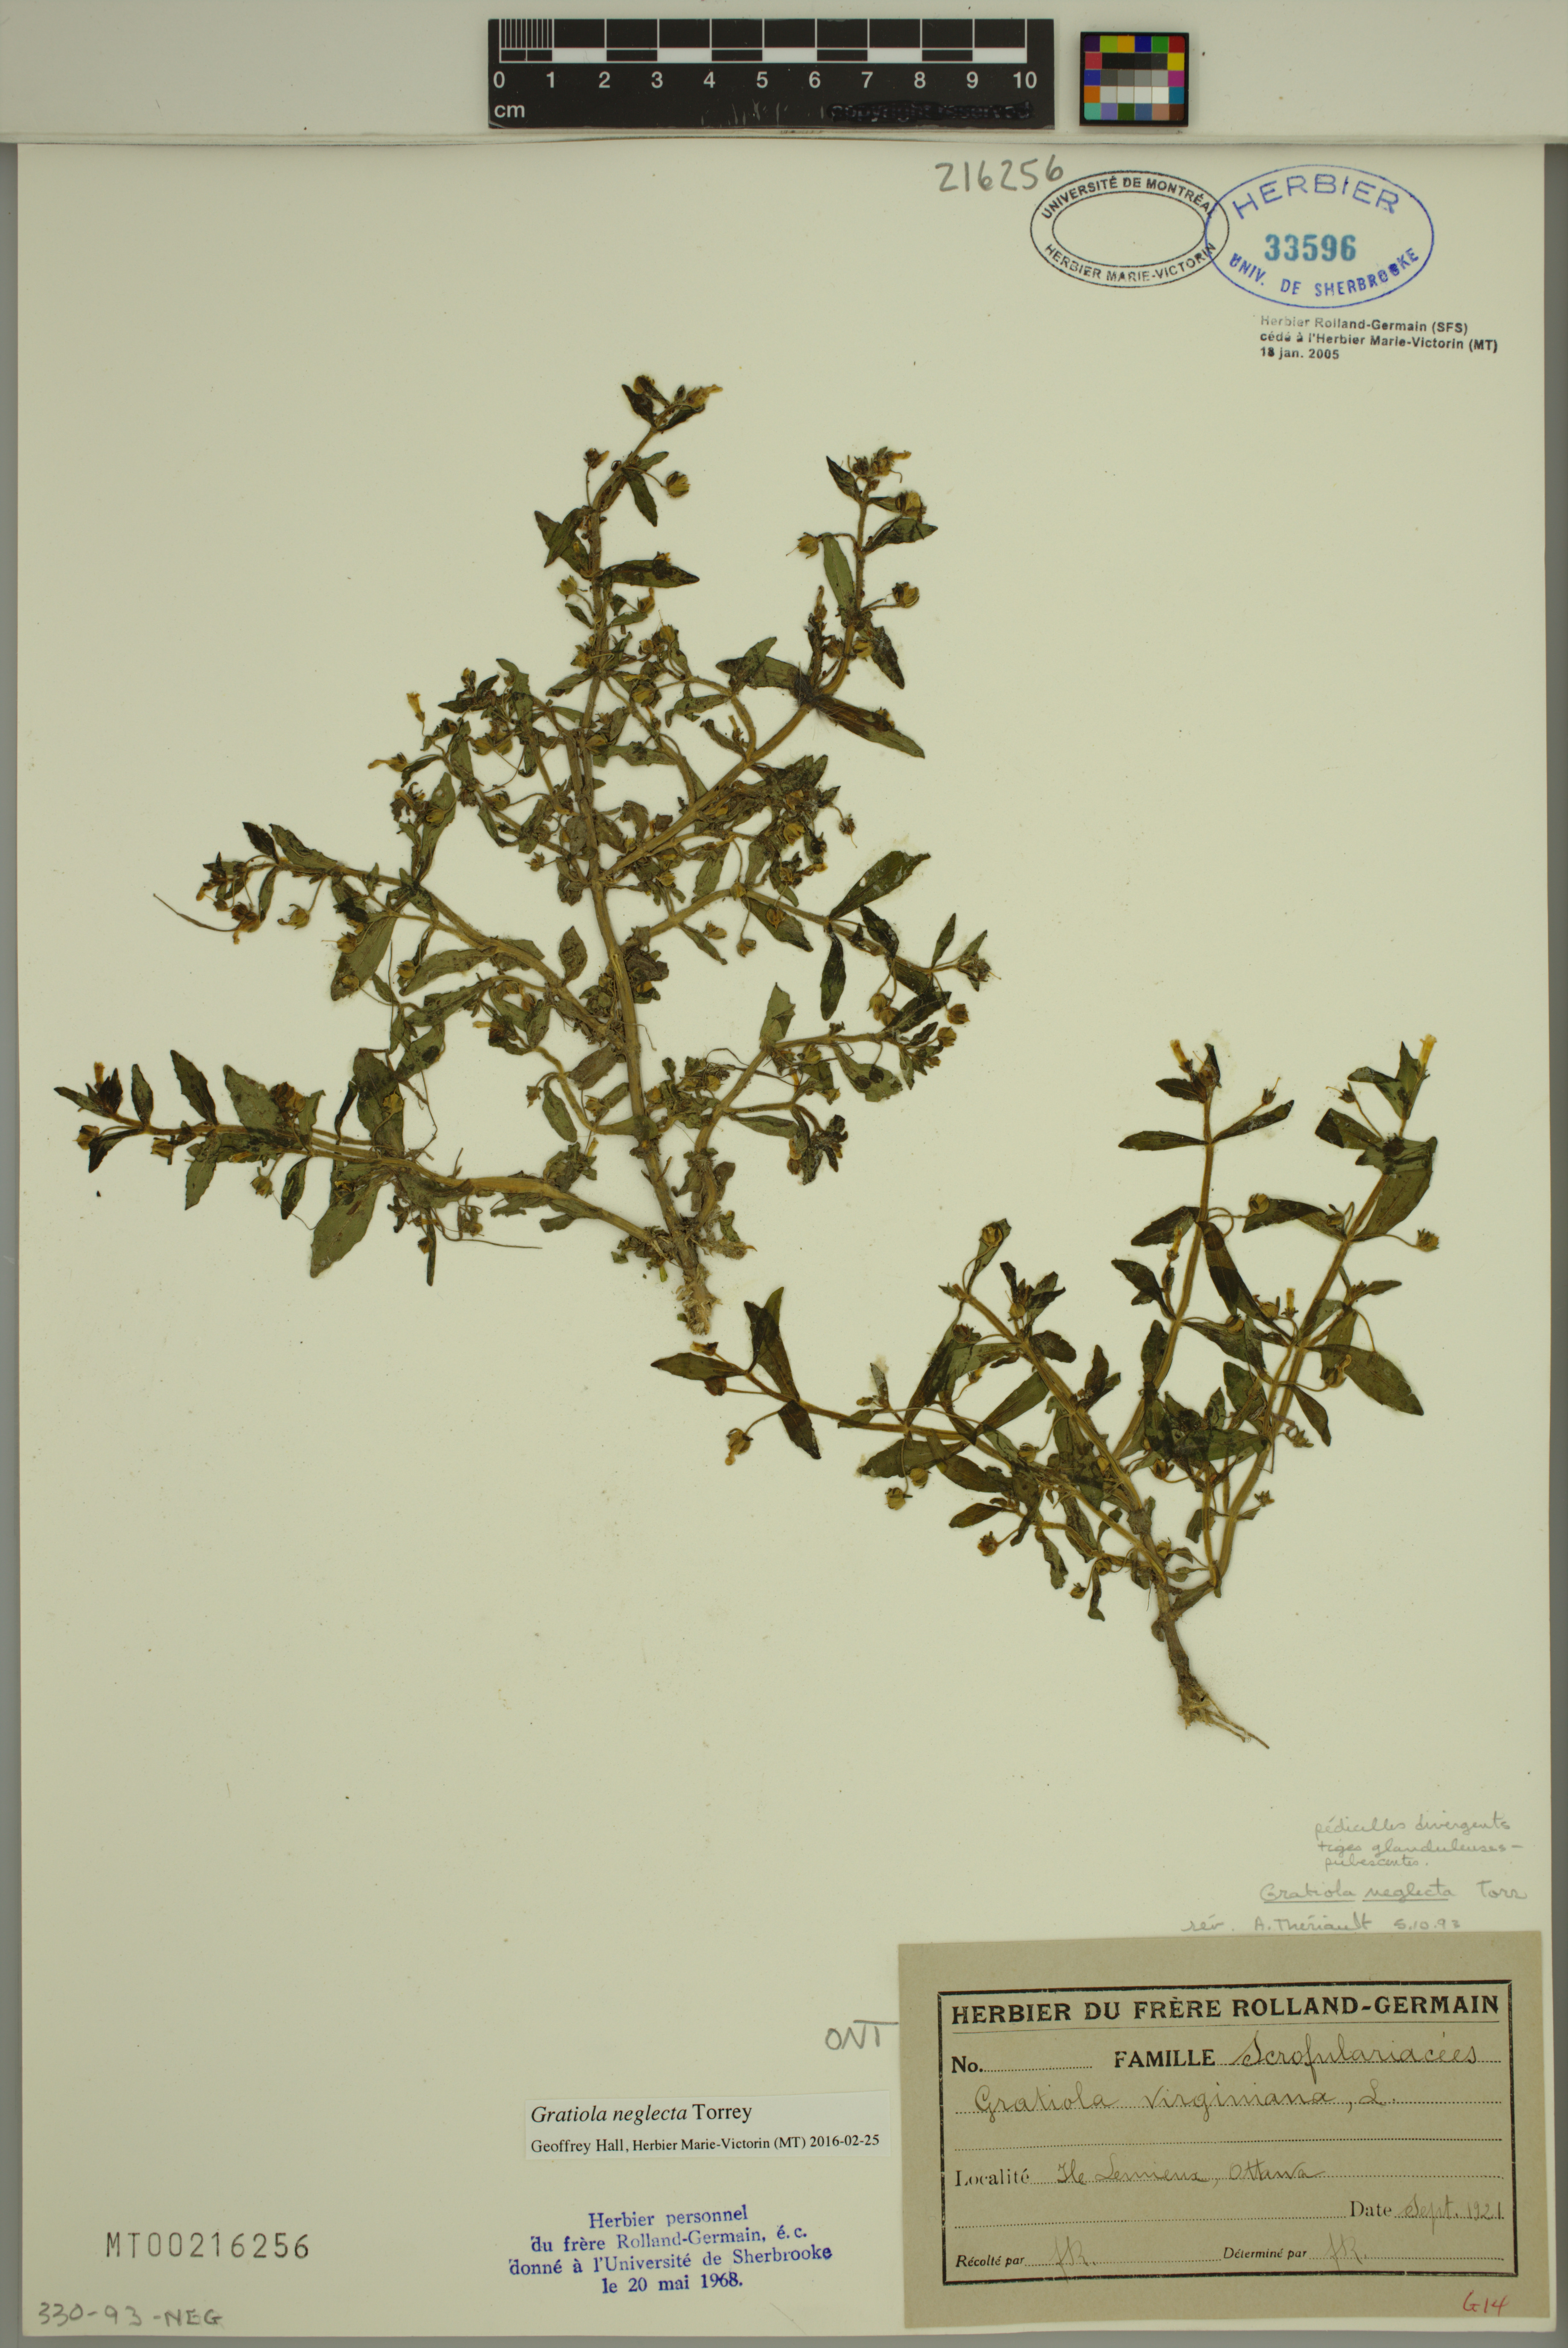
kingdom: Plantae
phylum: Tracheophyta
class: Magnoliopsida
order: Lamiales
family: Plantaginaceae
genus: Gratiola
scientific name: Gratiola neglecta
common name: American hedge-hyssop
